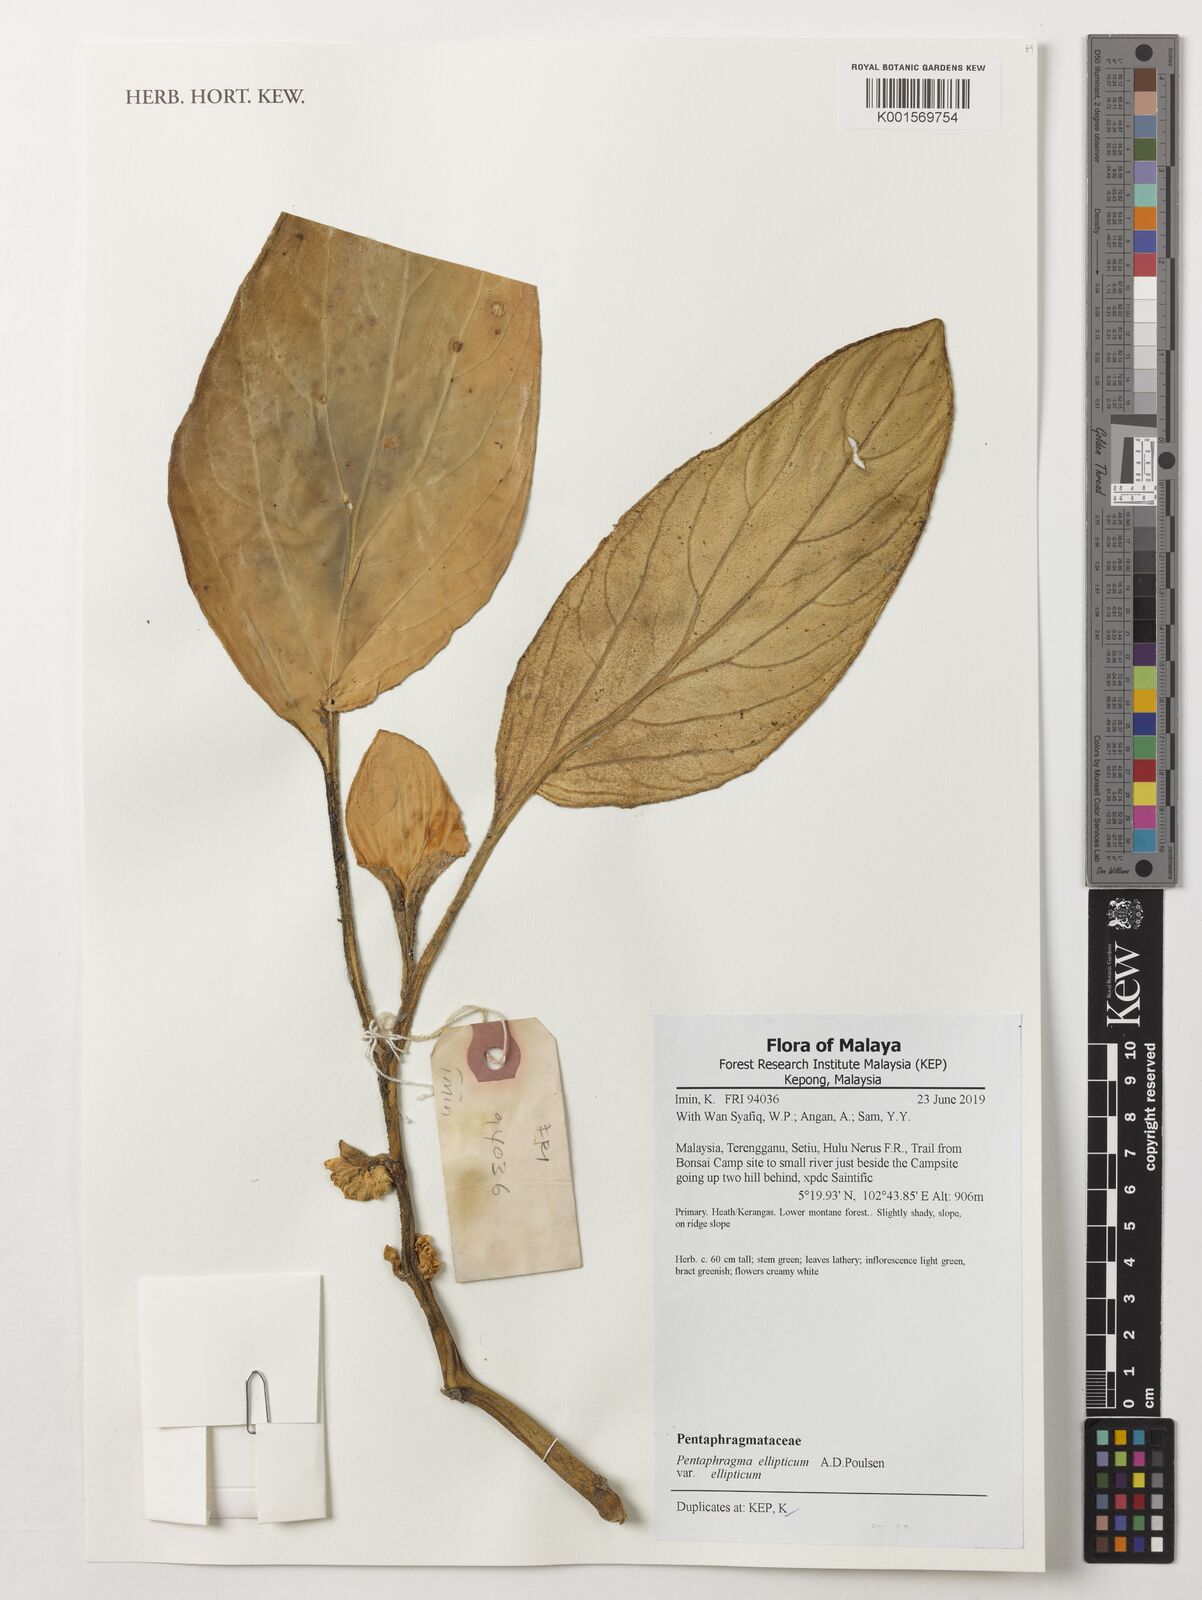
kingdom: Plantae
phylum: Tracheophyta
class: Magnoliopsida
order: Asterales
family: Pentaphragmataceae
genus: Pentaphragma
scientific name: Pentaphragma ellipticum
